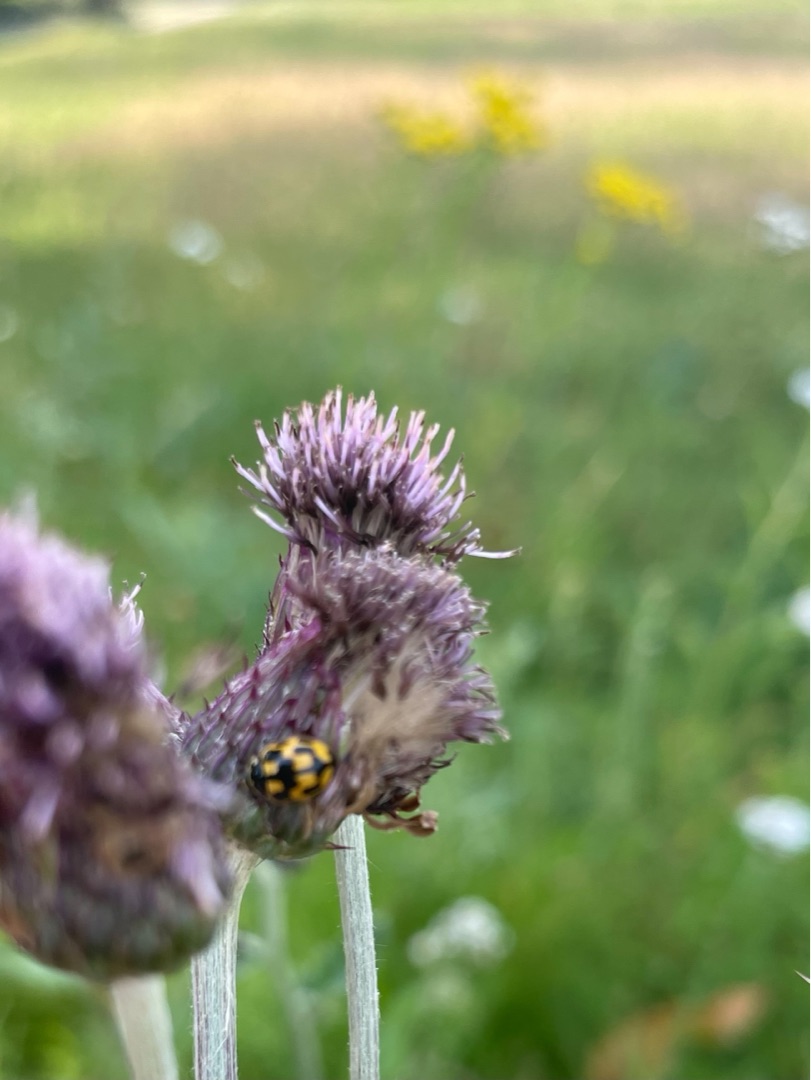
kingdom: Animalia
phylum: Arthropoda
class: Insecta
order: Coleoptera
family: Coccinellidae
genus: Propylaea
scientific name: Propylaea quatuordecimpunctata
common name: Skakbræt
